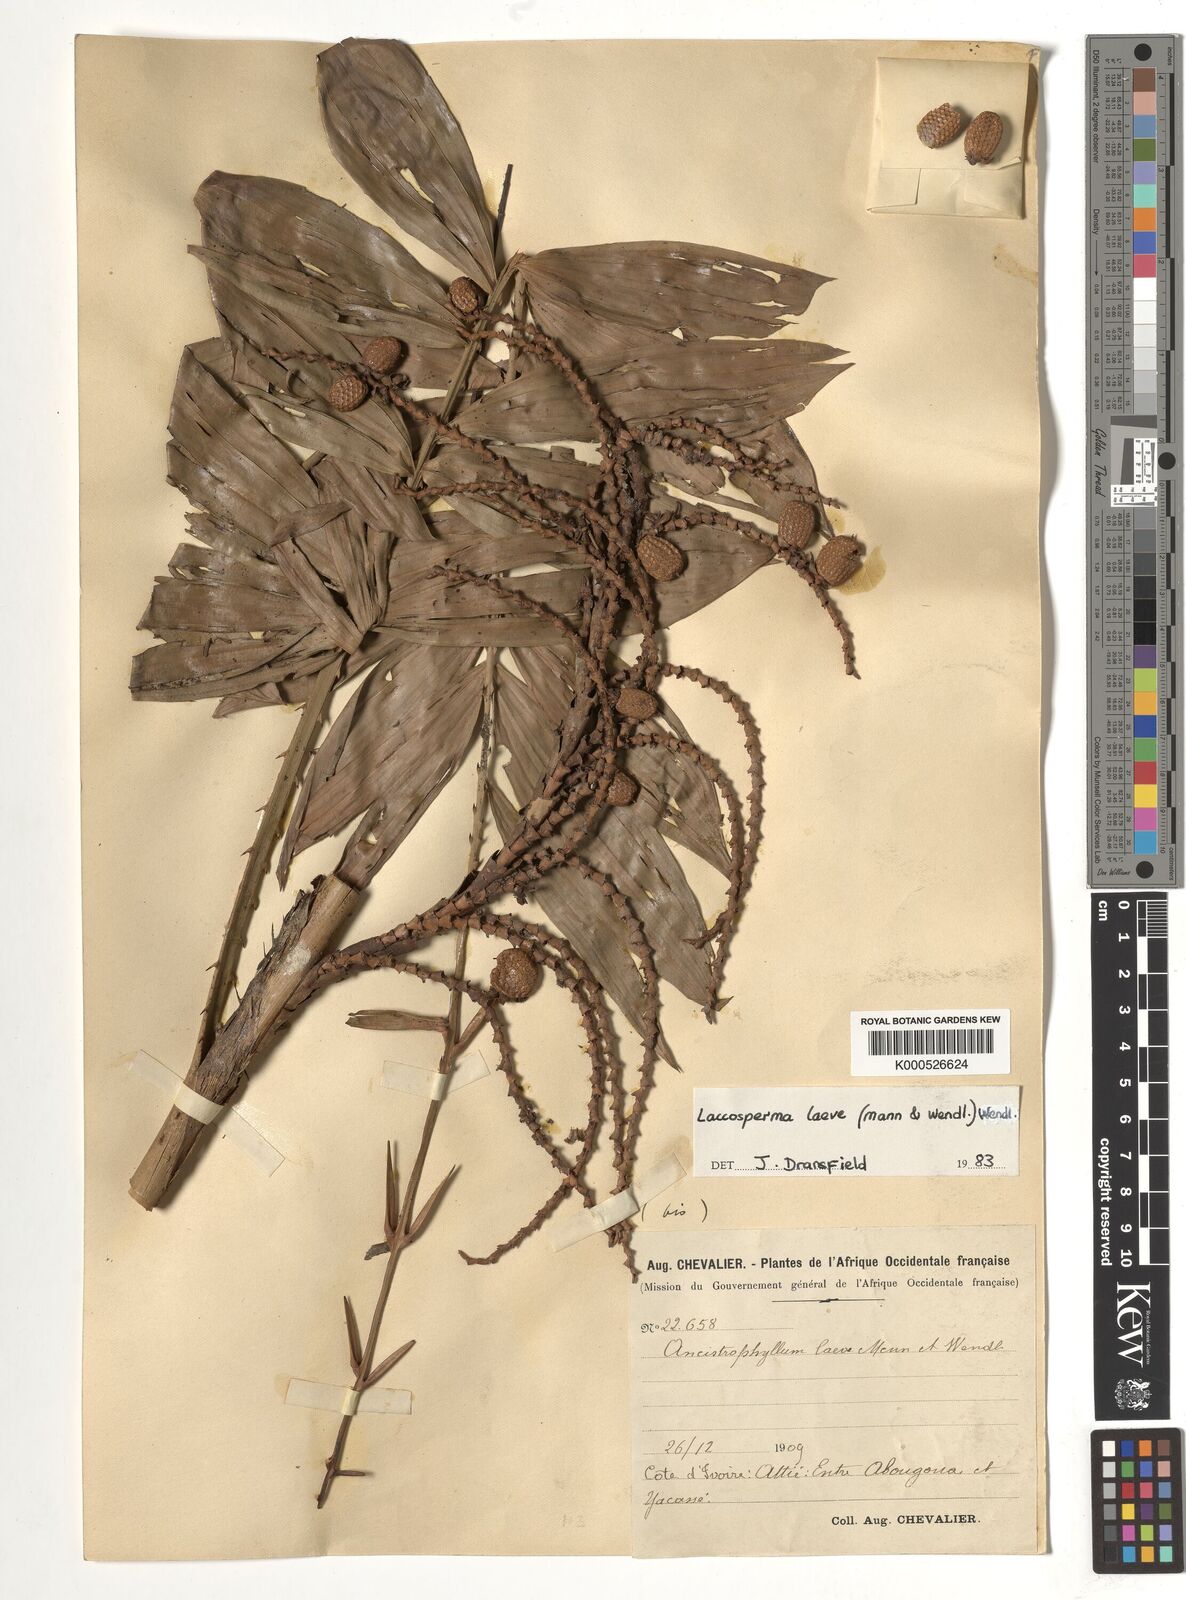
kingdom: Plantae
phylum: Tracheophyta
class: Liliopsida
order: Arecales
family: Arecaceae
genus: Laccosperma
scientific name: Laccosperma laeve
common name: Rattan
